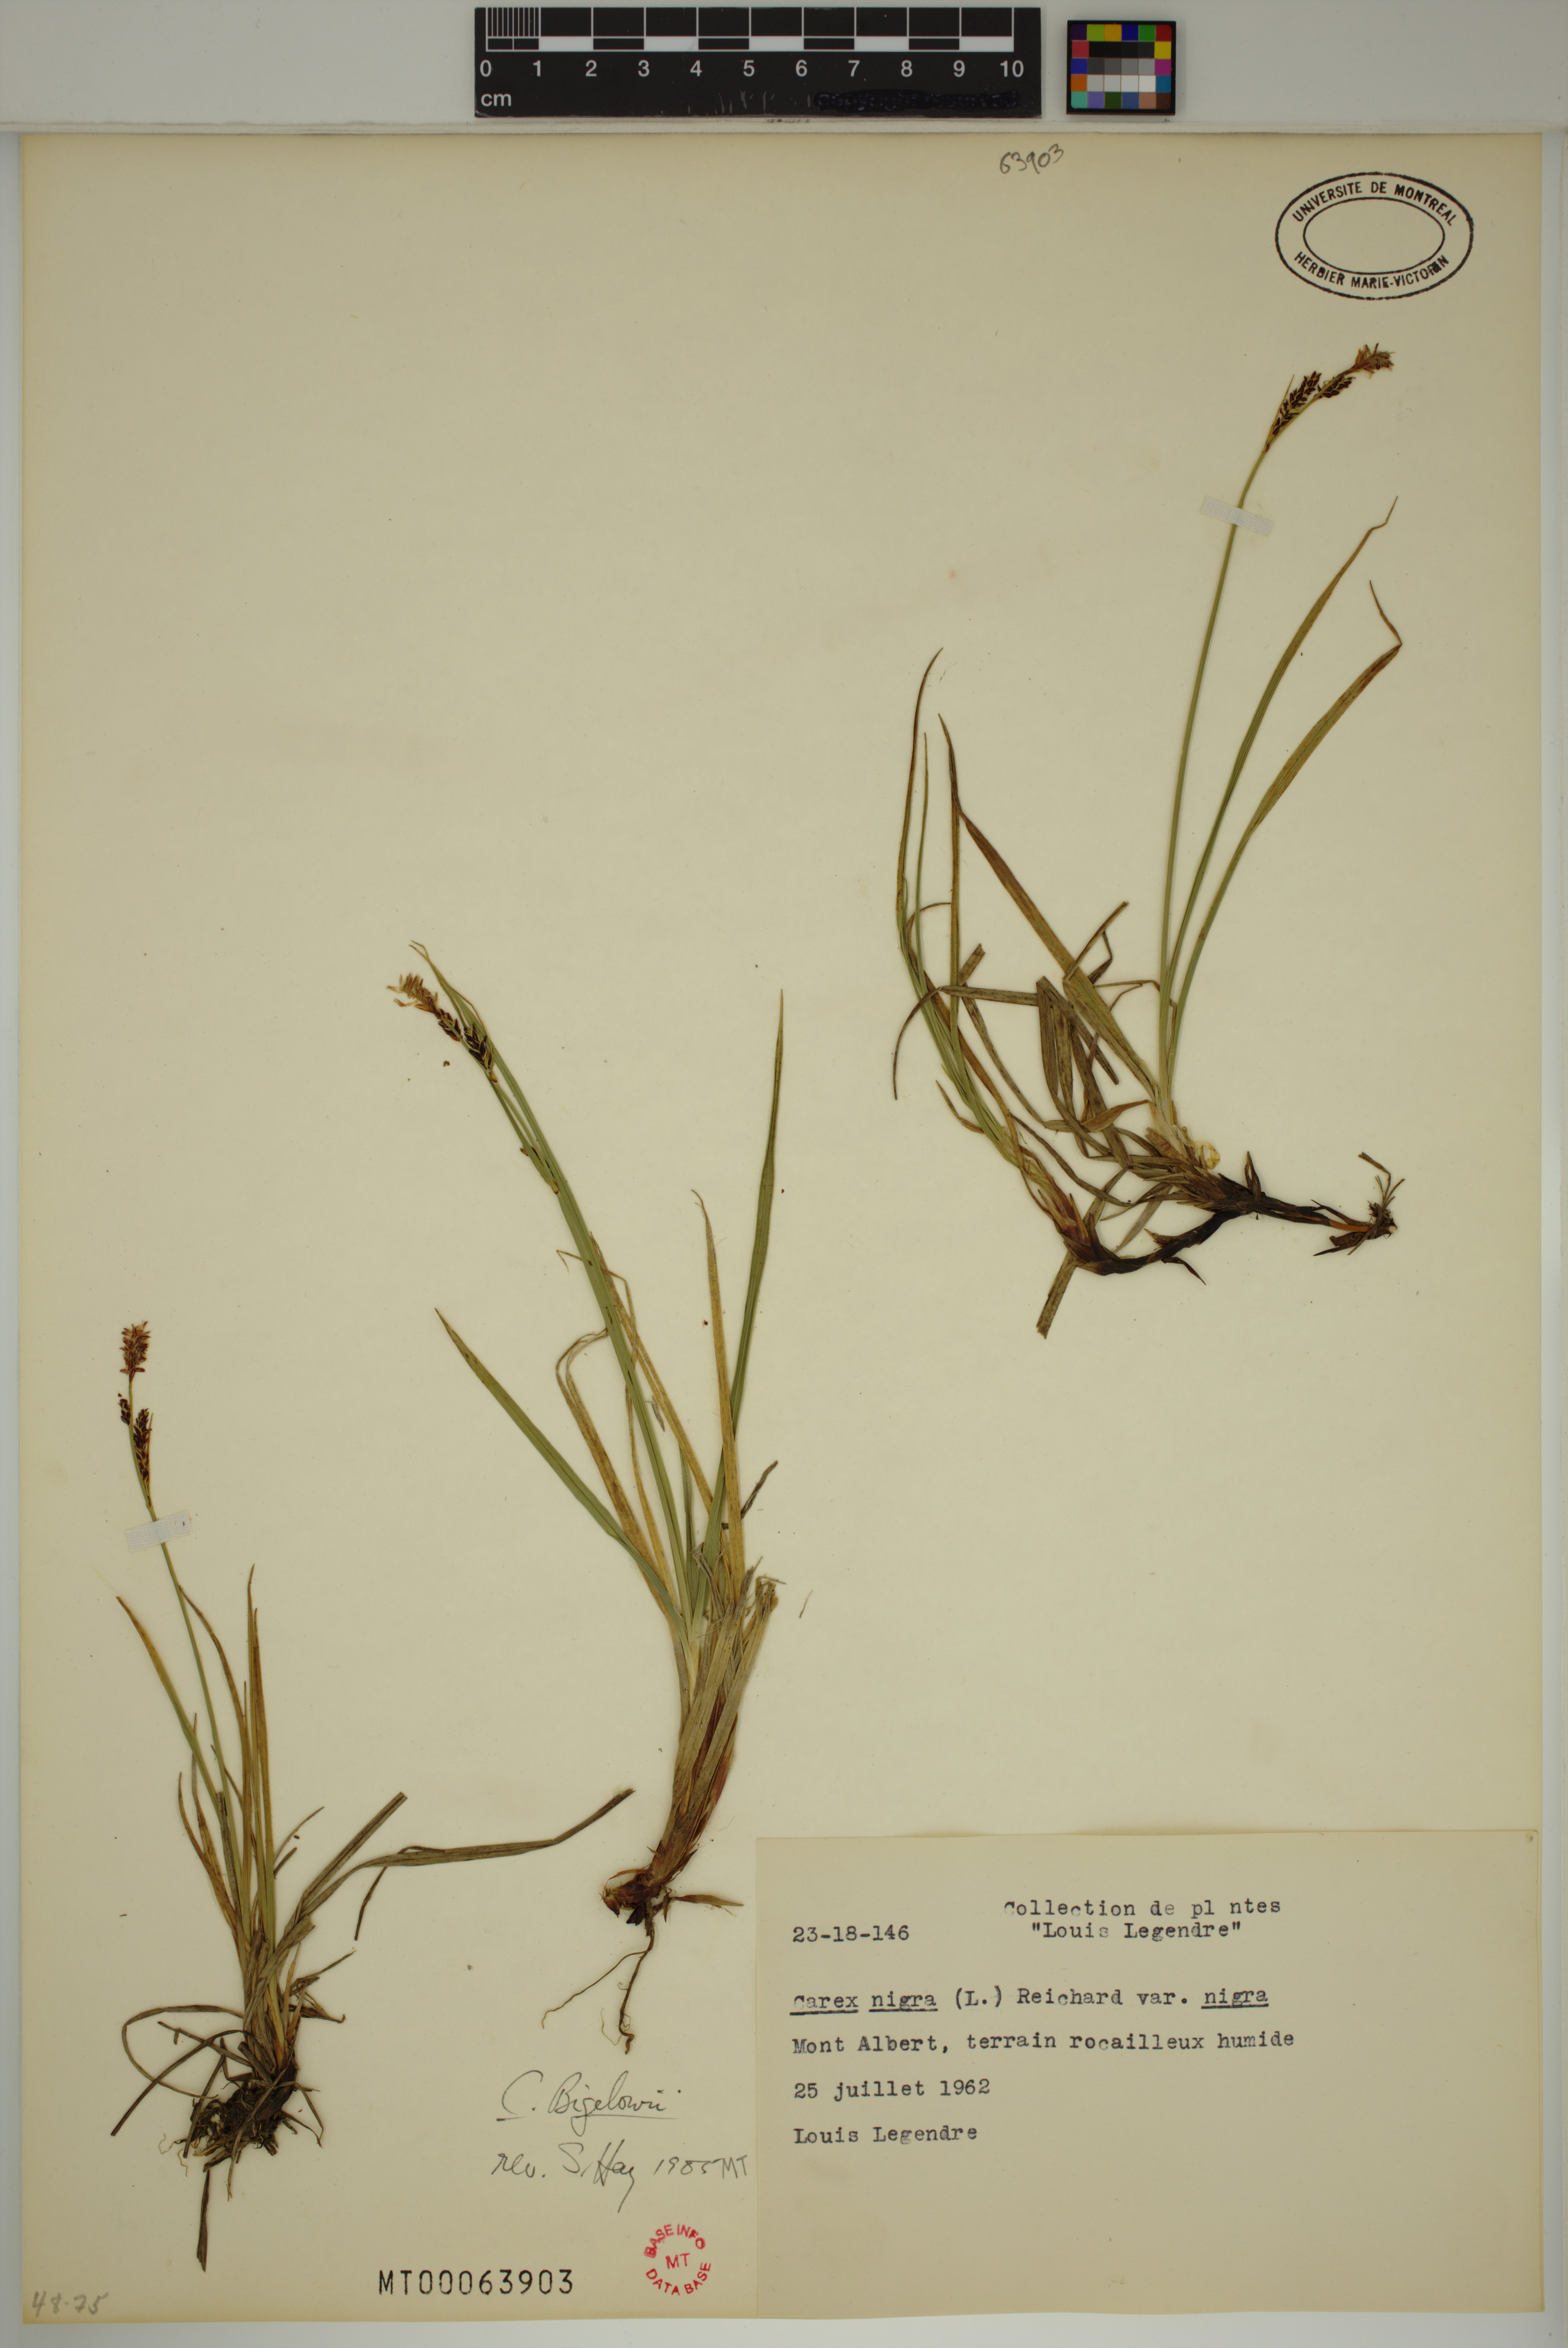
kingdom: Plantae
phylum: Tracheophyta
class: Liliopsida
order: Poales
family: Cyperaceae
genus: Carex
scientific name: Carex bigelowii
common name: Stiff sedge
